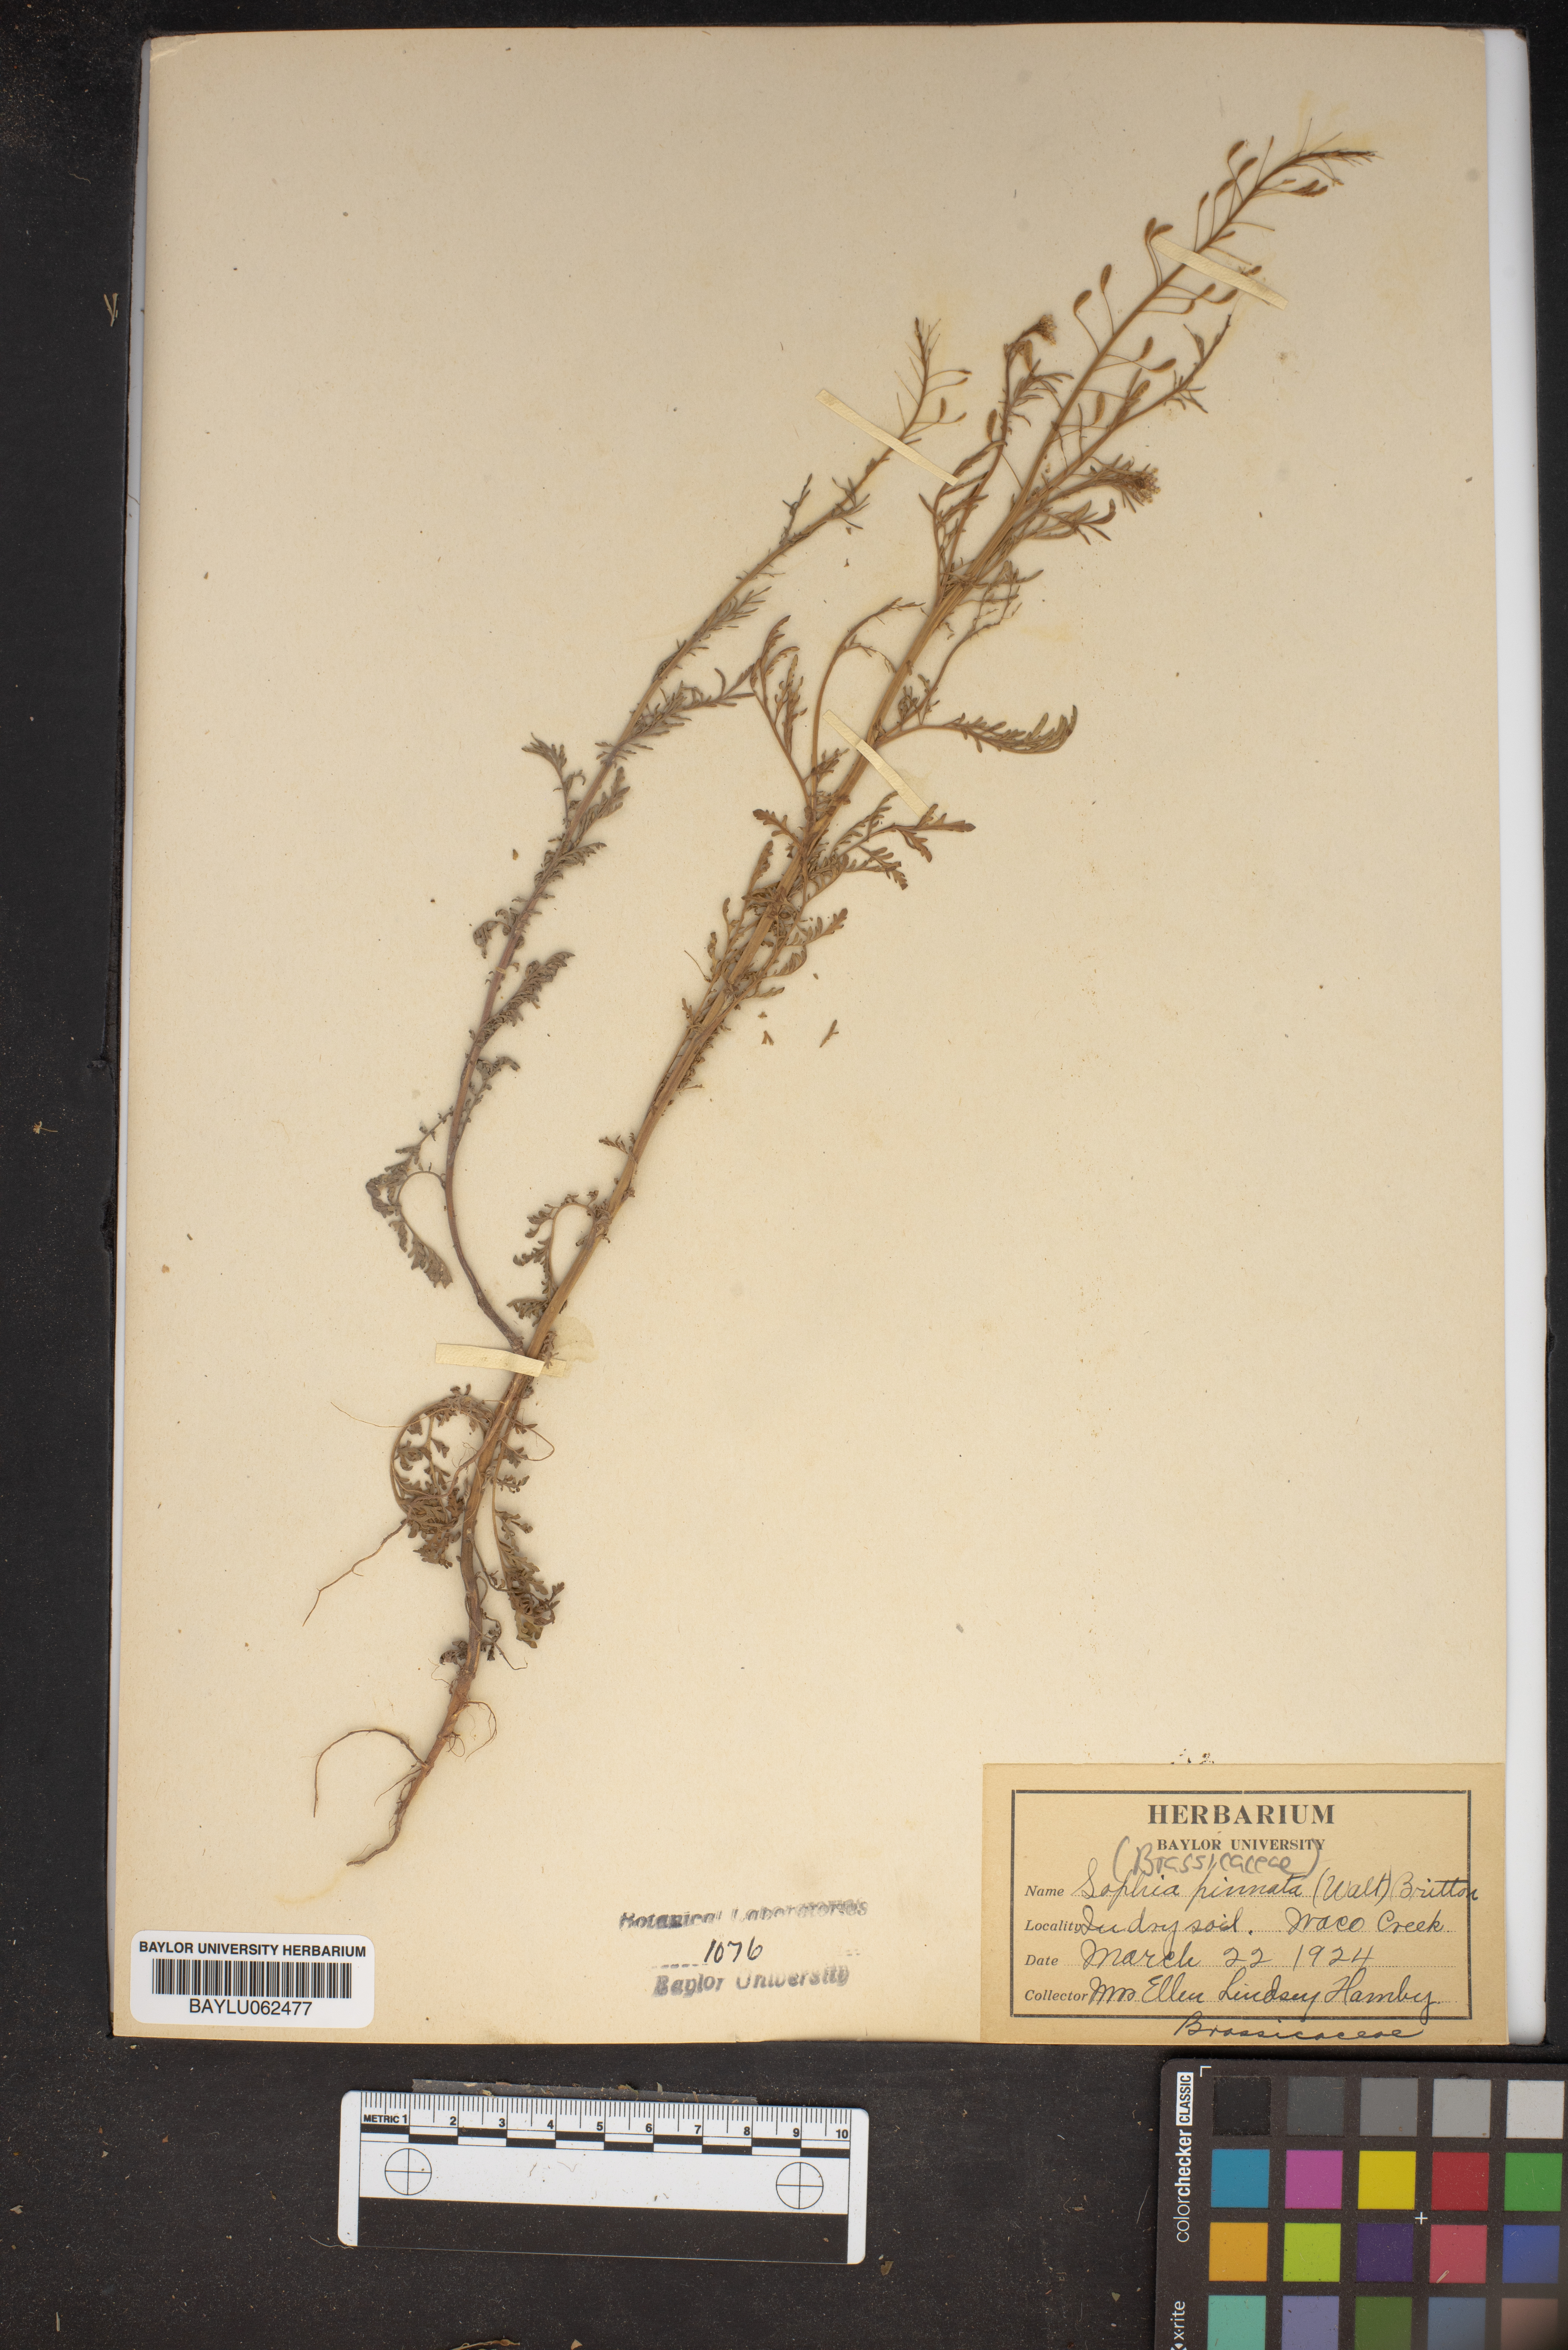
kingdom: Plantae
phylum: Tracheophyta
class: Magnoliopsida
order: Brassicales
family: Brassicaceae
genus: Descurainia
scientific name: Descurainia pinnata
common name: Western tansy mustard
